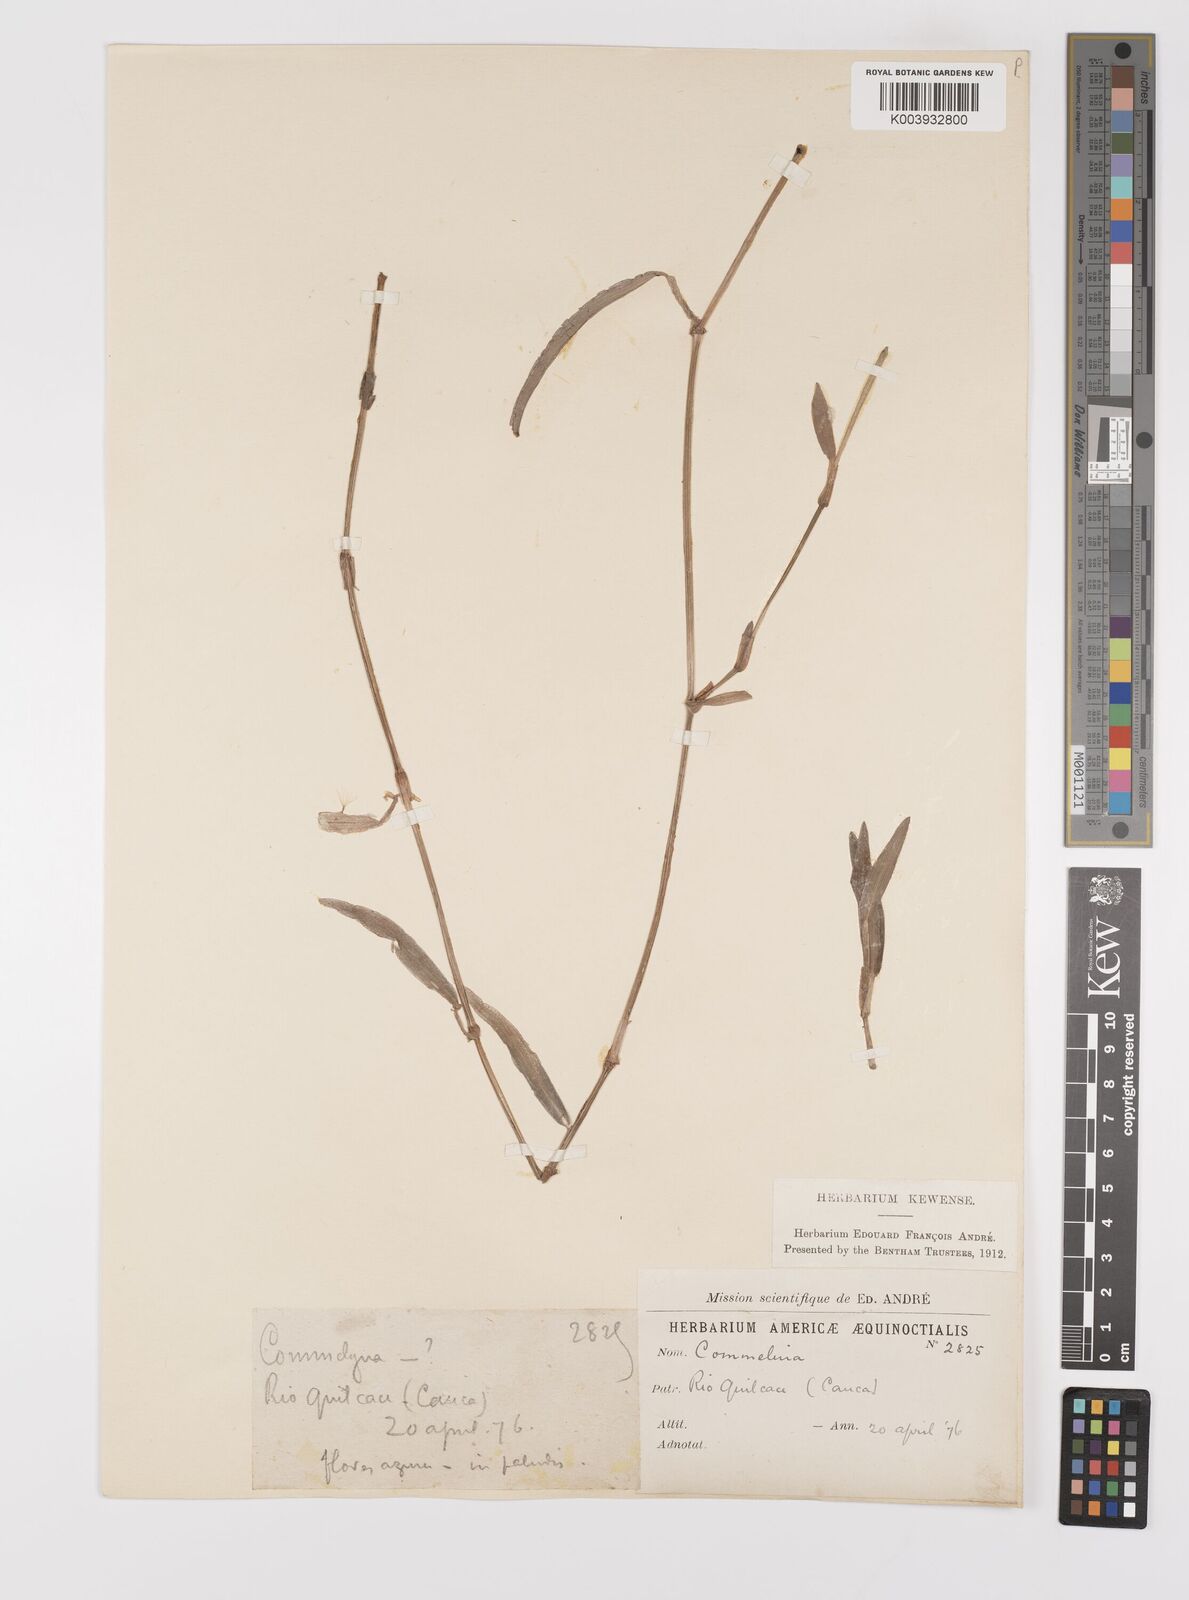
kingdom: Plantae
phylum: Tracheophyta
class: Liliopsida
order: Commelinales
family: Commelinaceae
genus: Commelina
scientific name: Commelina
